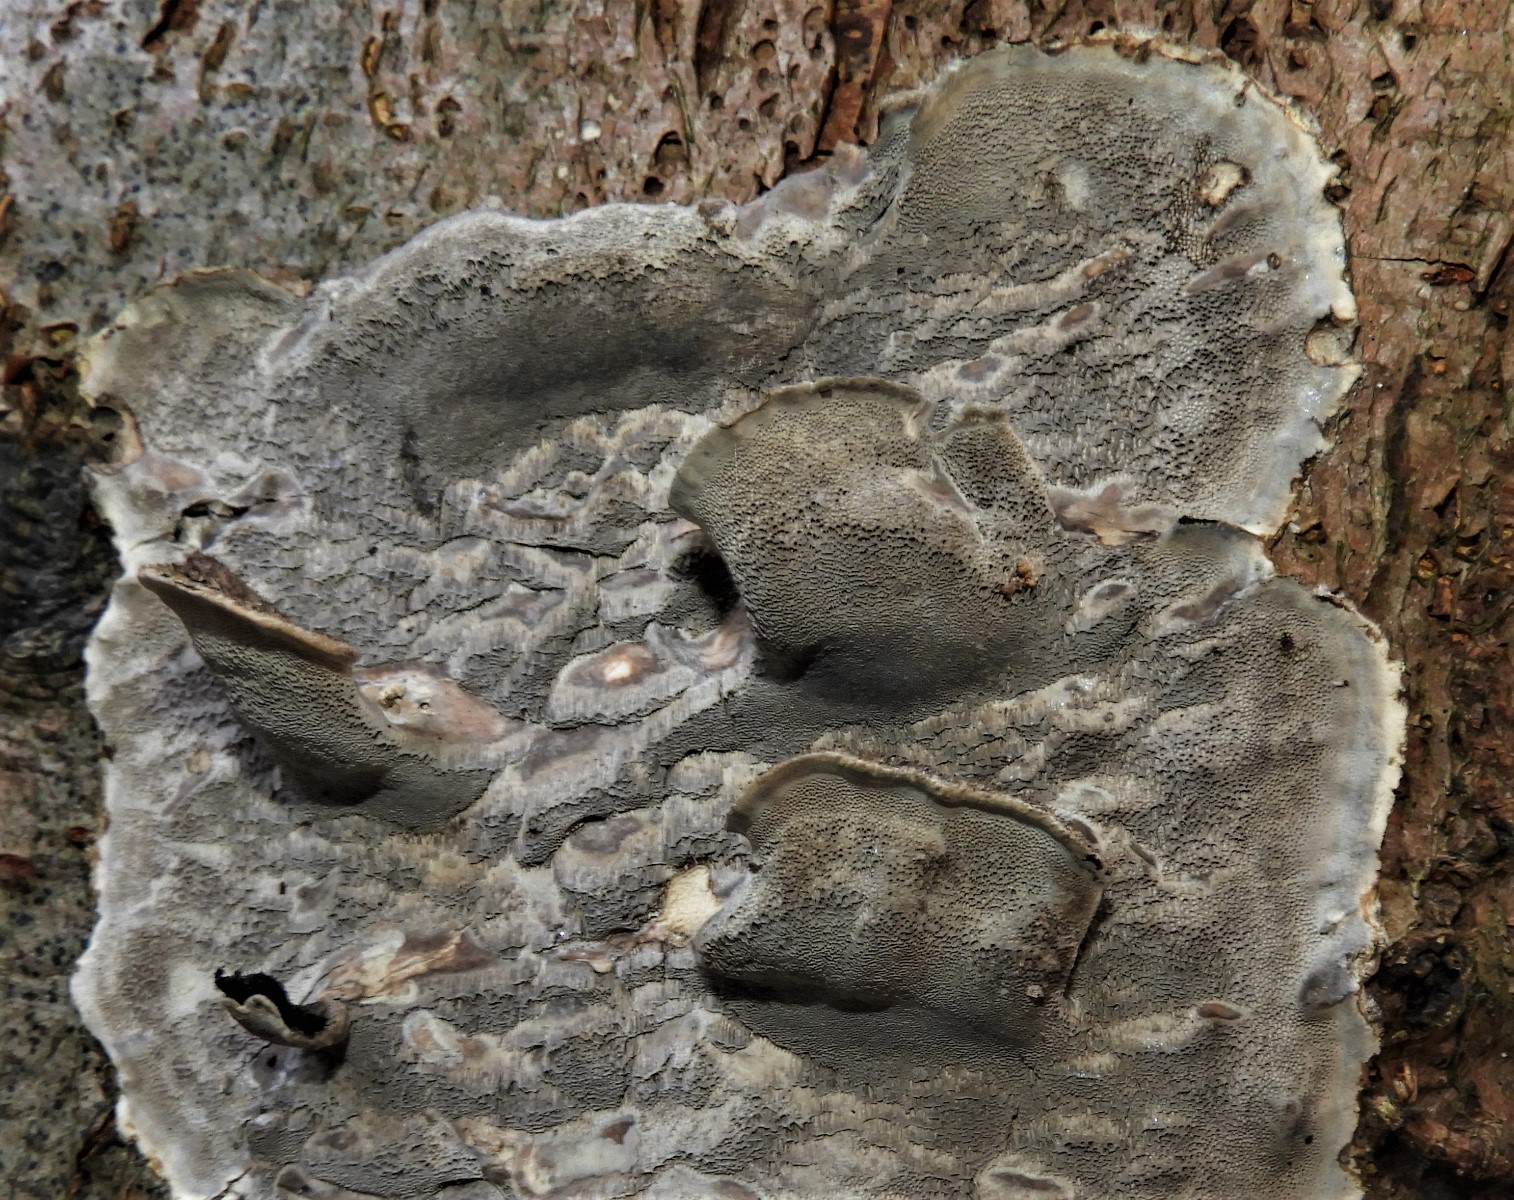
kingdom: Fungi
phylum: Basidiomycota
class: Agaricomycetes
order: Polyporales
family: Phanerochaetaceae
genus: Bjerkandera
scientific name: Bjerkandera adusta
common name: sveden sodporesvamp
